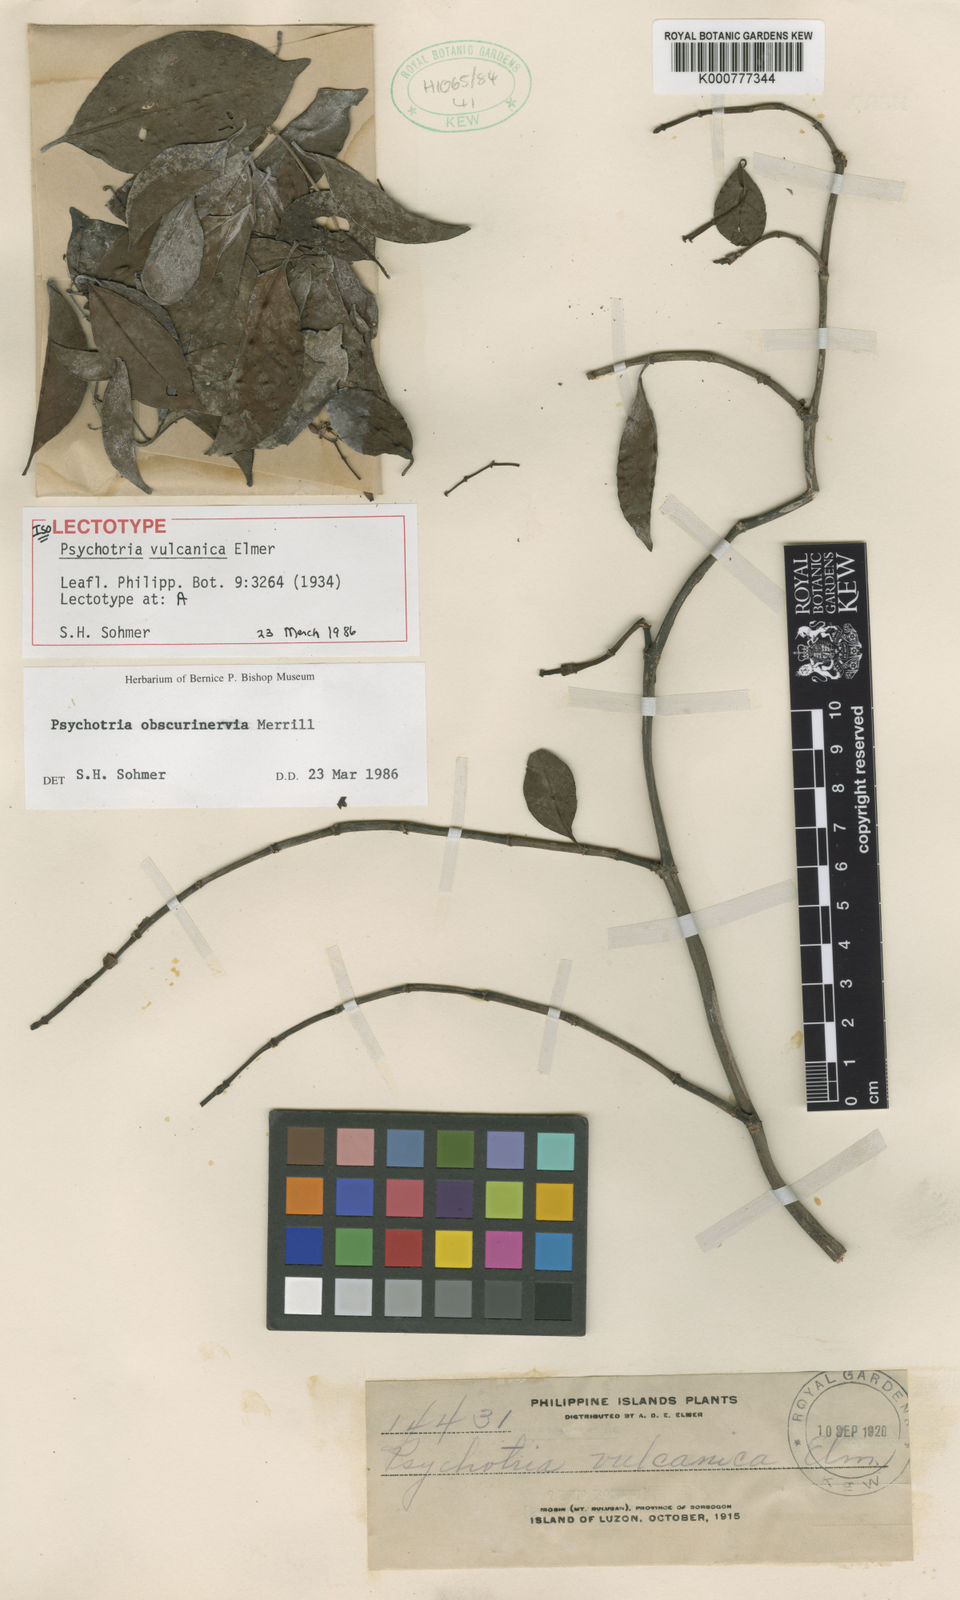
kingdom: Plantae
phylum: Tracheophyta
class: Magnoliopsida
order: Gentianales
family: Rubiaceae
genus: Psychotria
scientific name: Psychotria obscurinervia
